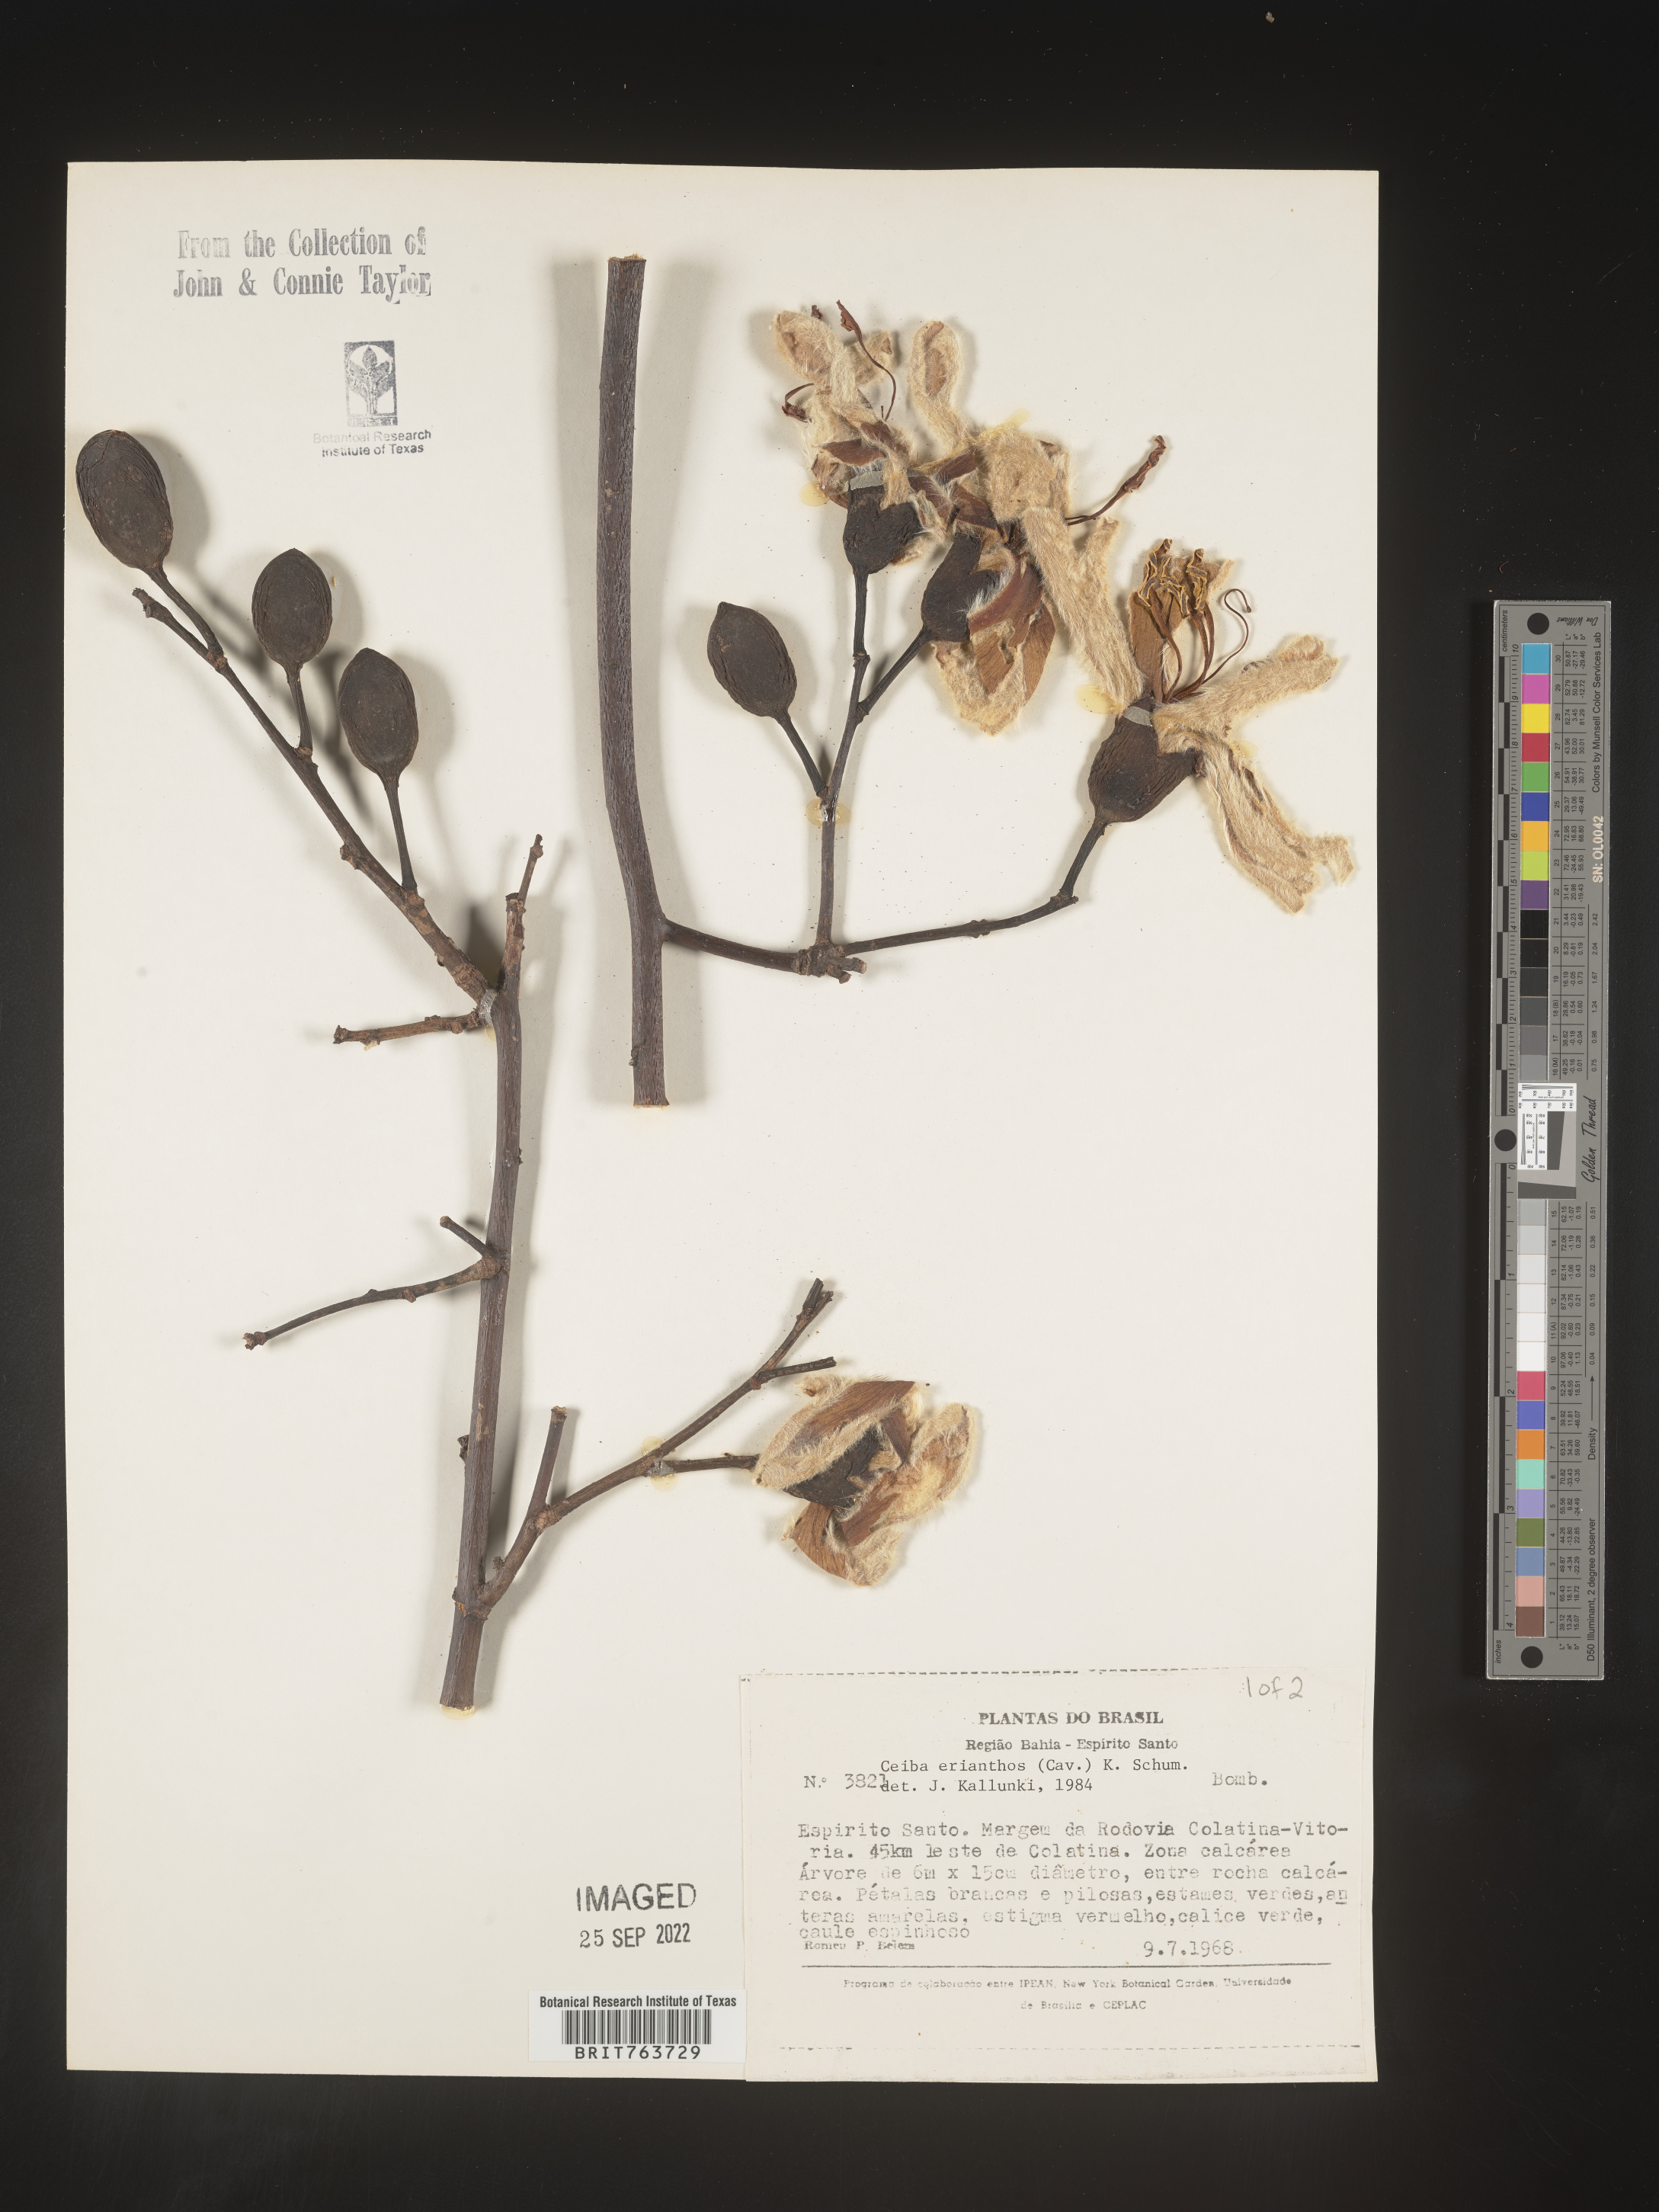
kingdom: Plantae
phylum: Tracheophyta
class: Magnoliopsida
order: Malvales
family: Malvaceae
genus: Ceiba
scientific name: Ceiba
